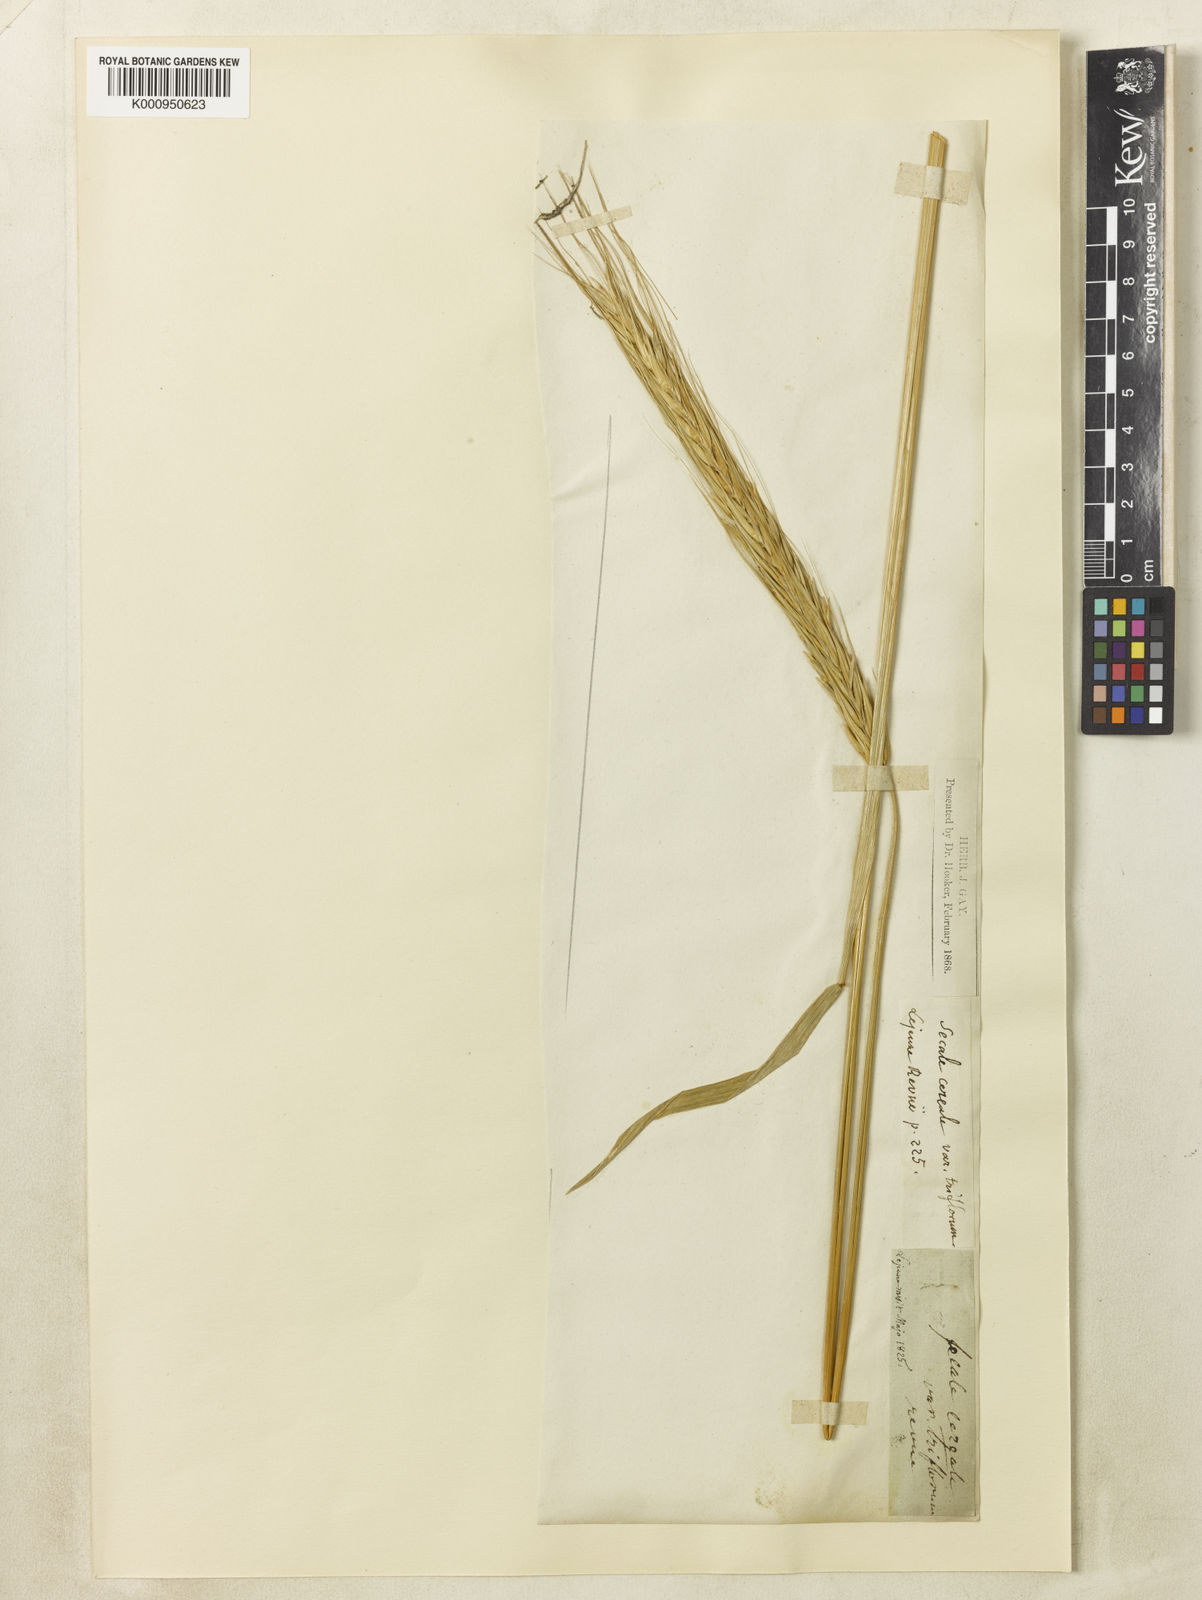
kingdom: Plantae
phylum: Tracheophyta
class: Liliopsida
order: Poales
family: Poaceae
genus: Secale
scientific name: Secale cereale
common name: Rye
